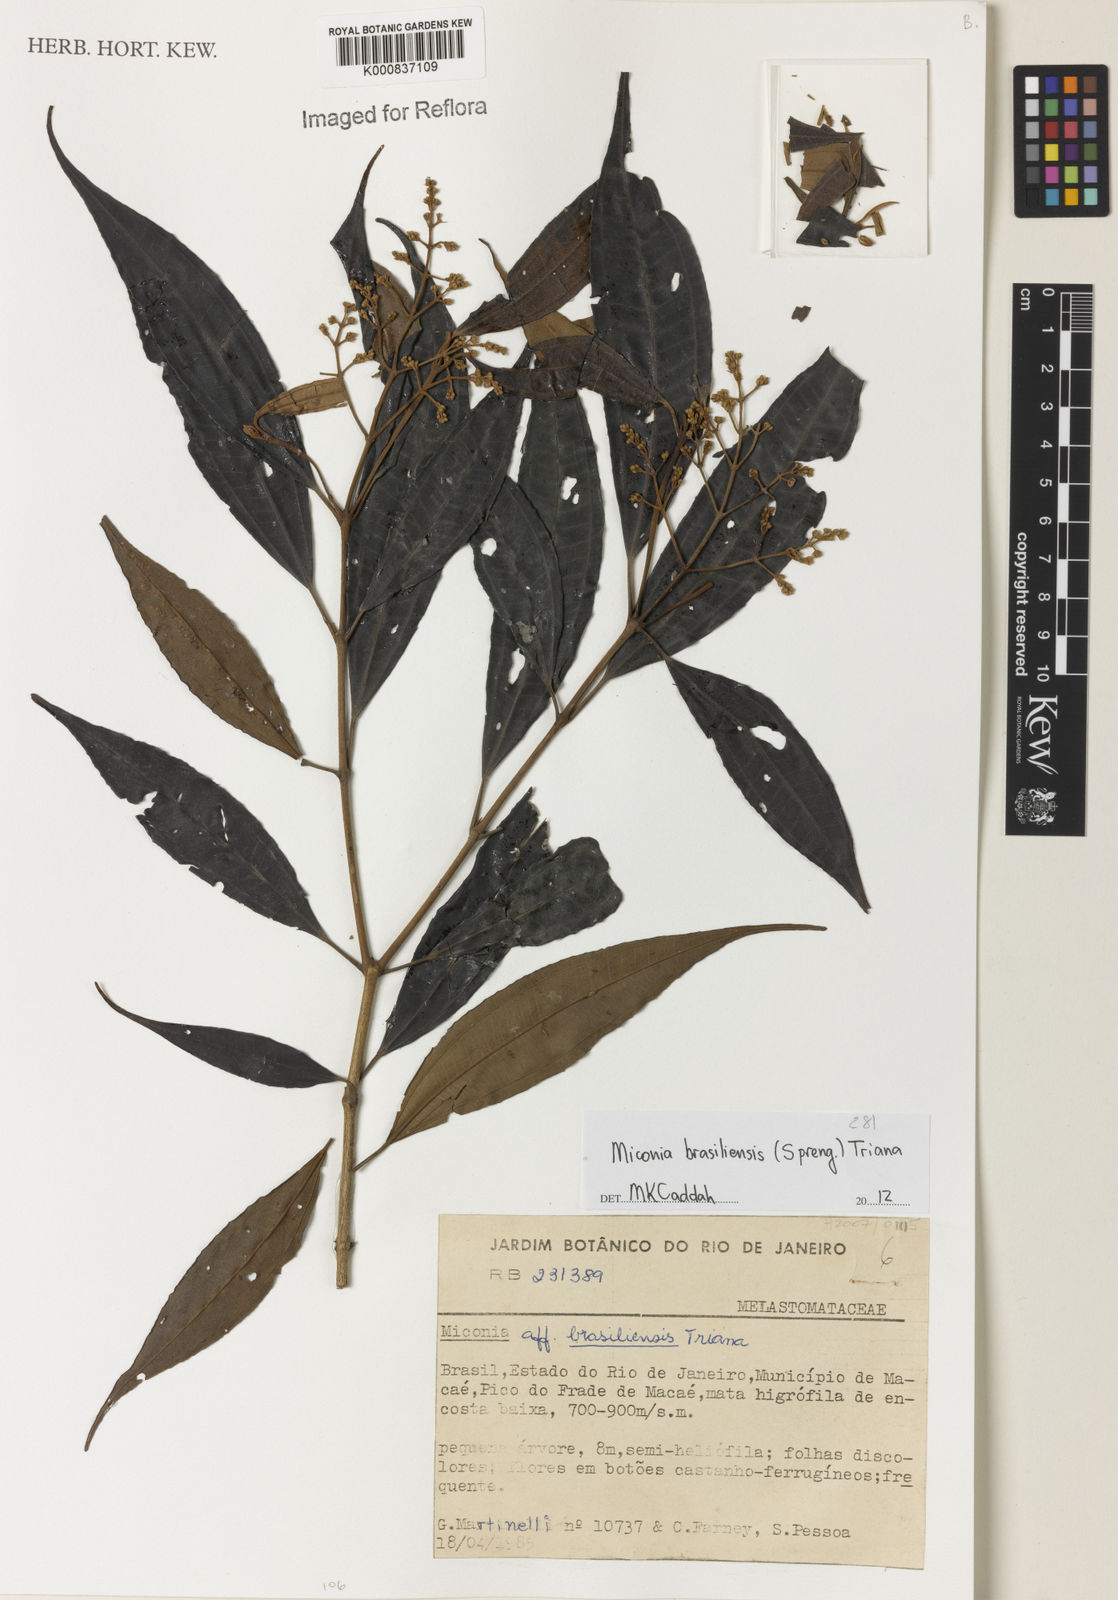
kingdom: Plantae
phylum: Tracheophyta
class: Magnoliopsida
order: Myrtales
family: Melastomataceae
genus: Miconia
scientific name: Miconia brasiliensis
